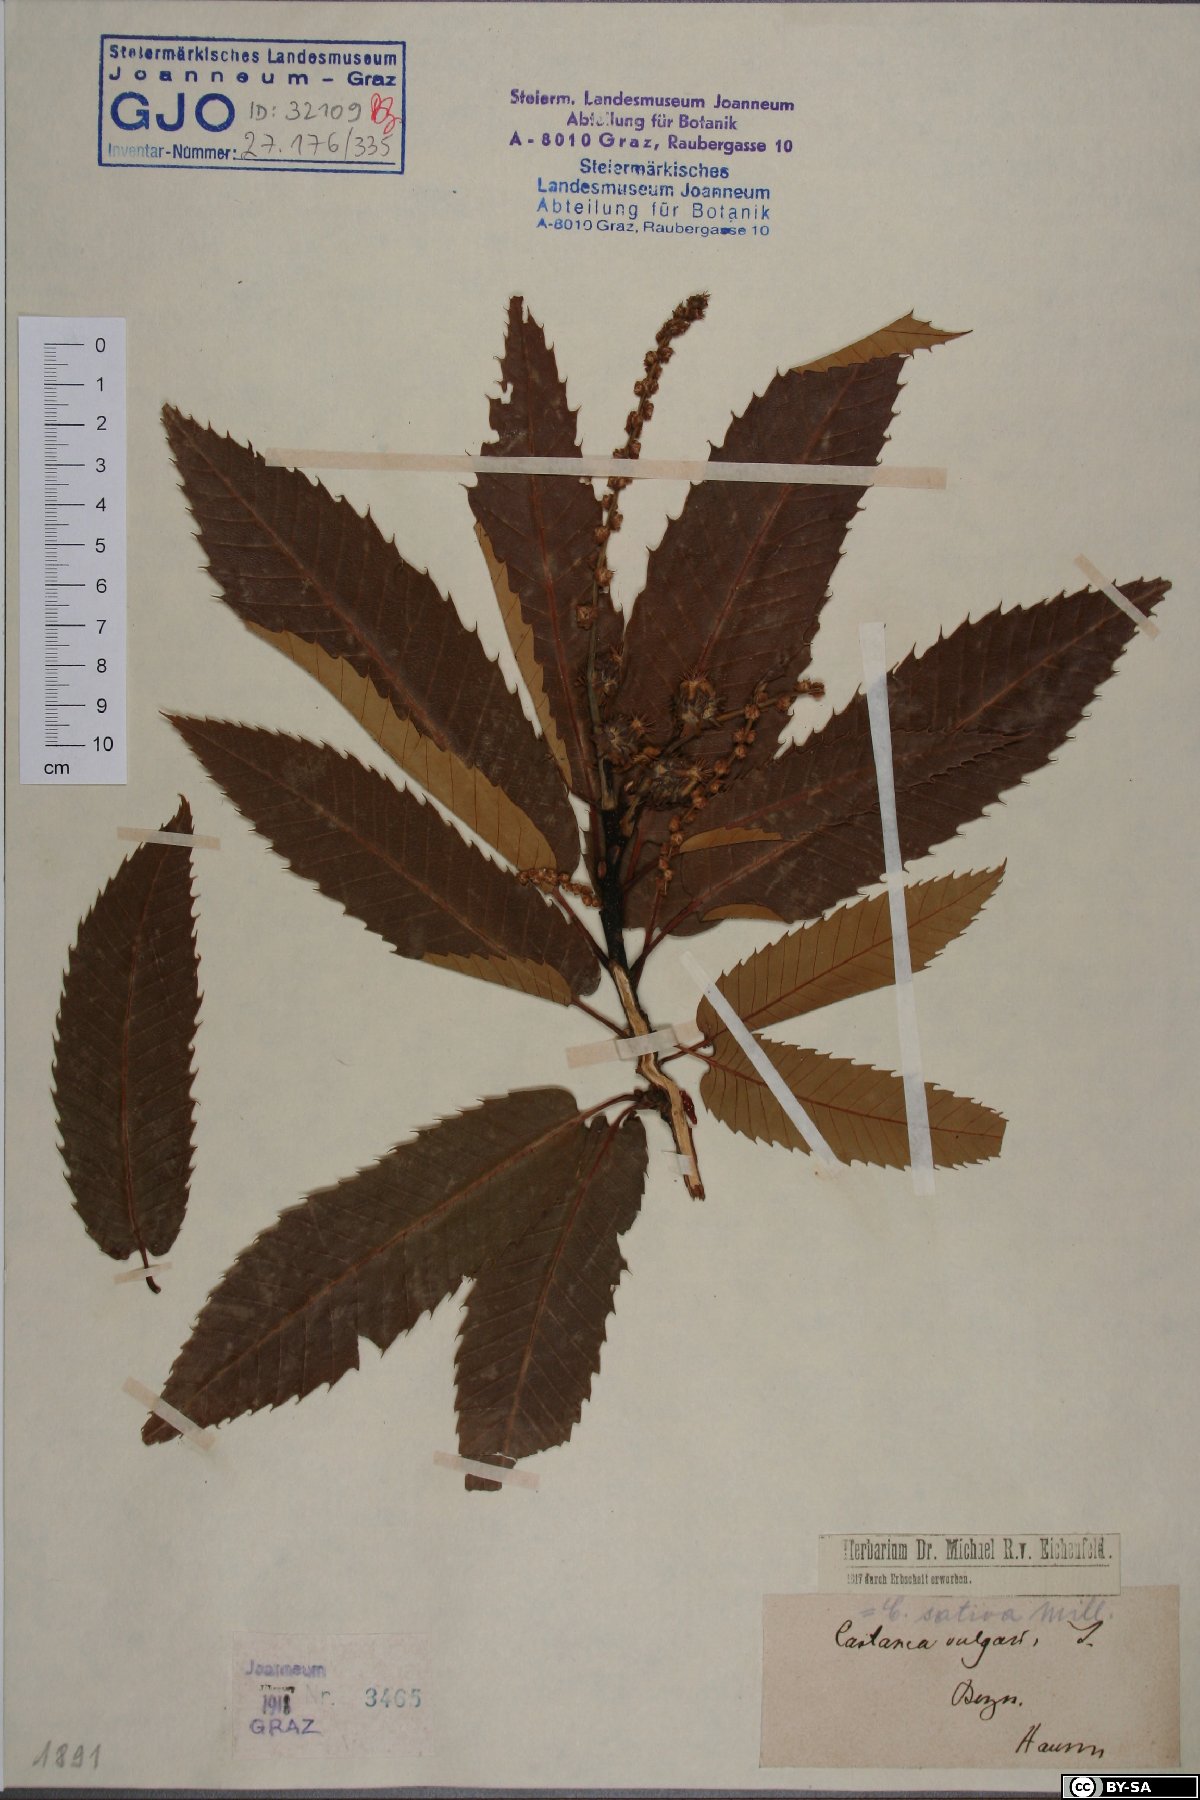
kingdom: Plantae
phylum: Tracheophyta
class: Magnoliopsida
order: Fagales
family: Fagaceae
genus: Castanea
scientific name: Castanea sativa
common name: Sweet chestnut
